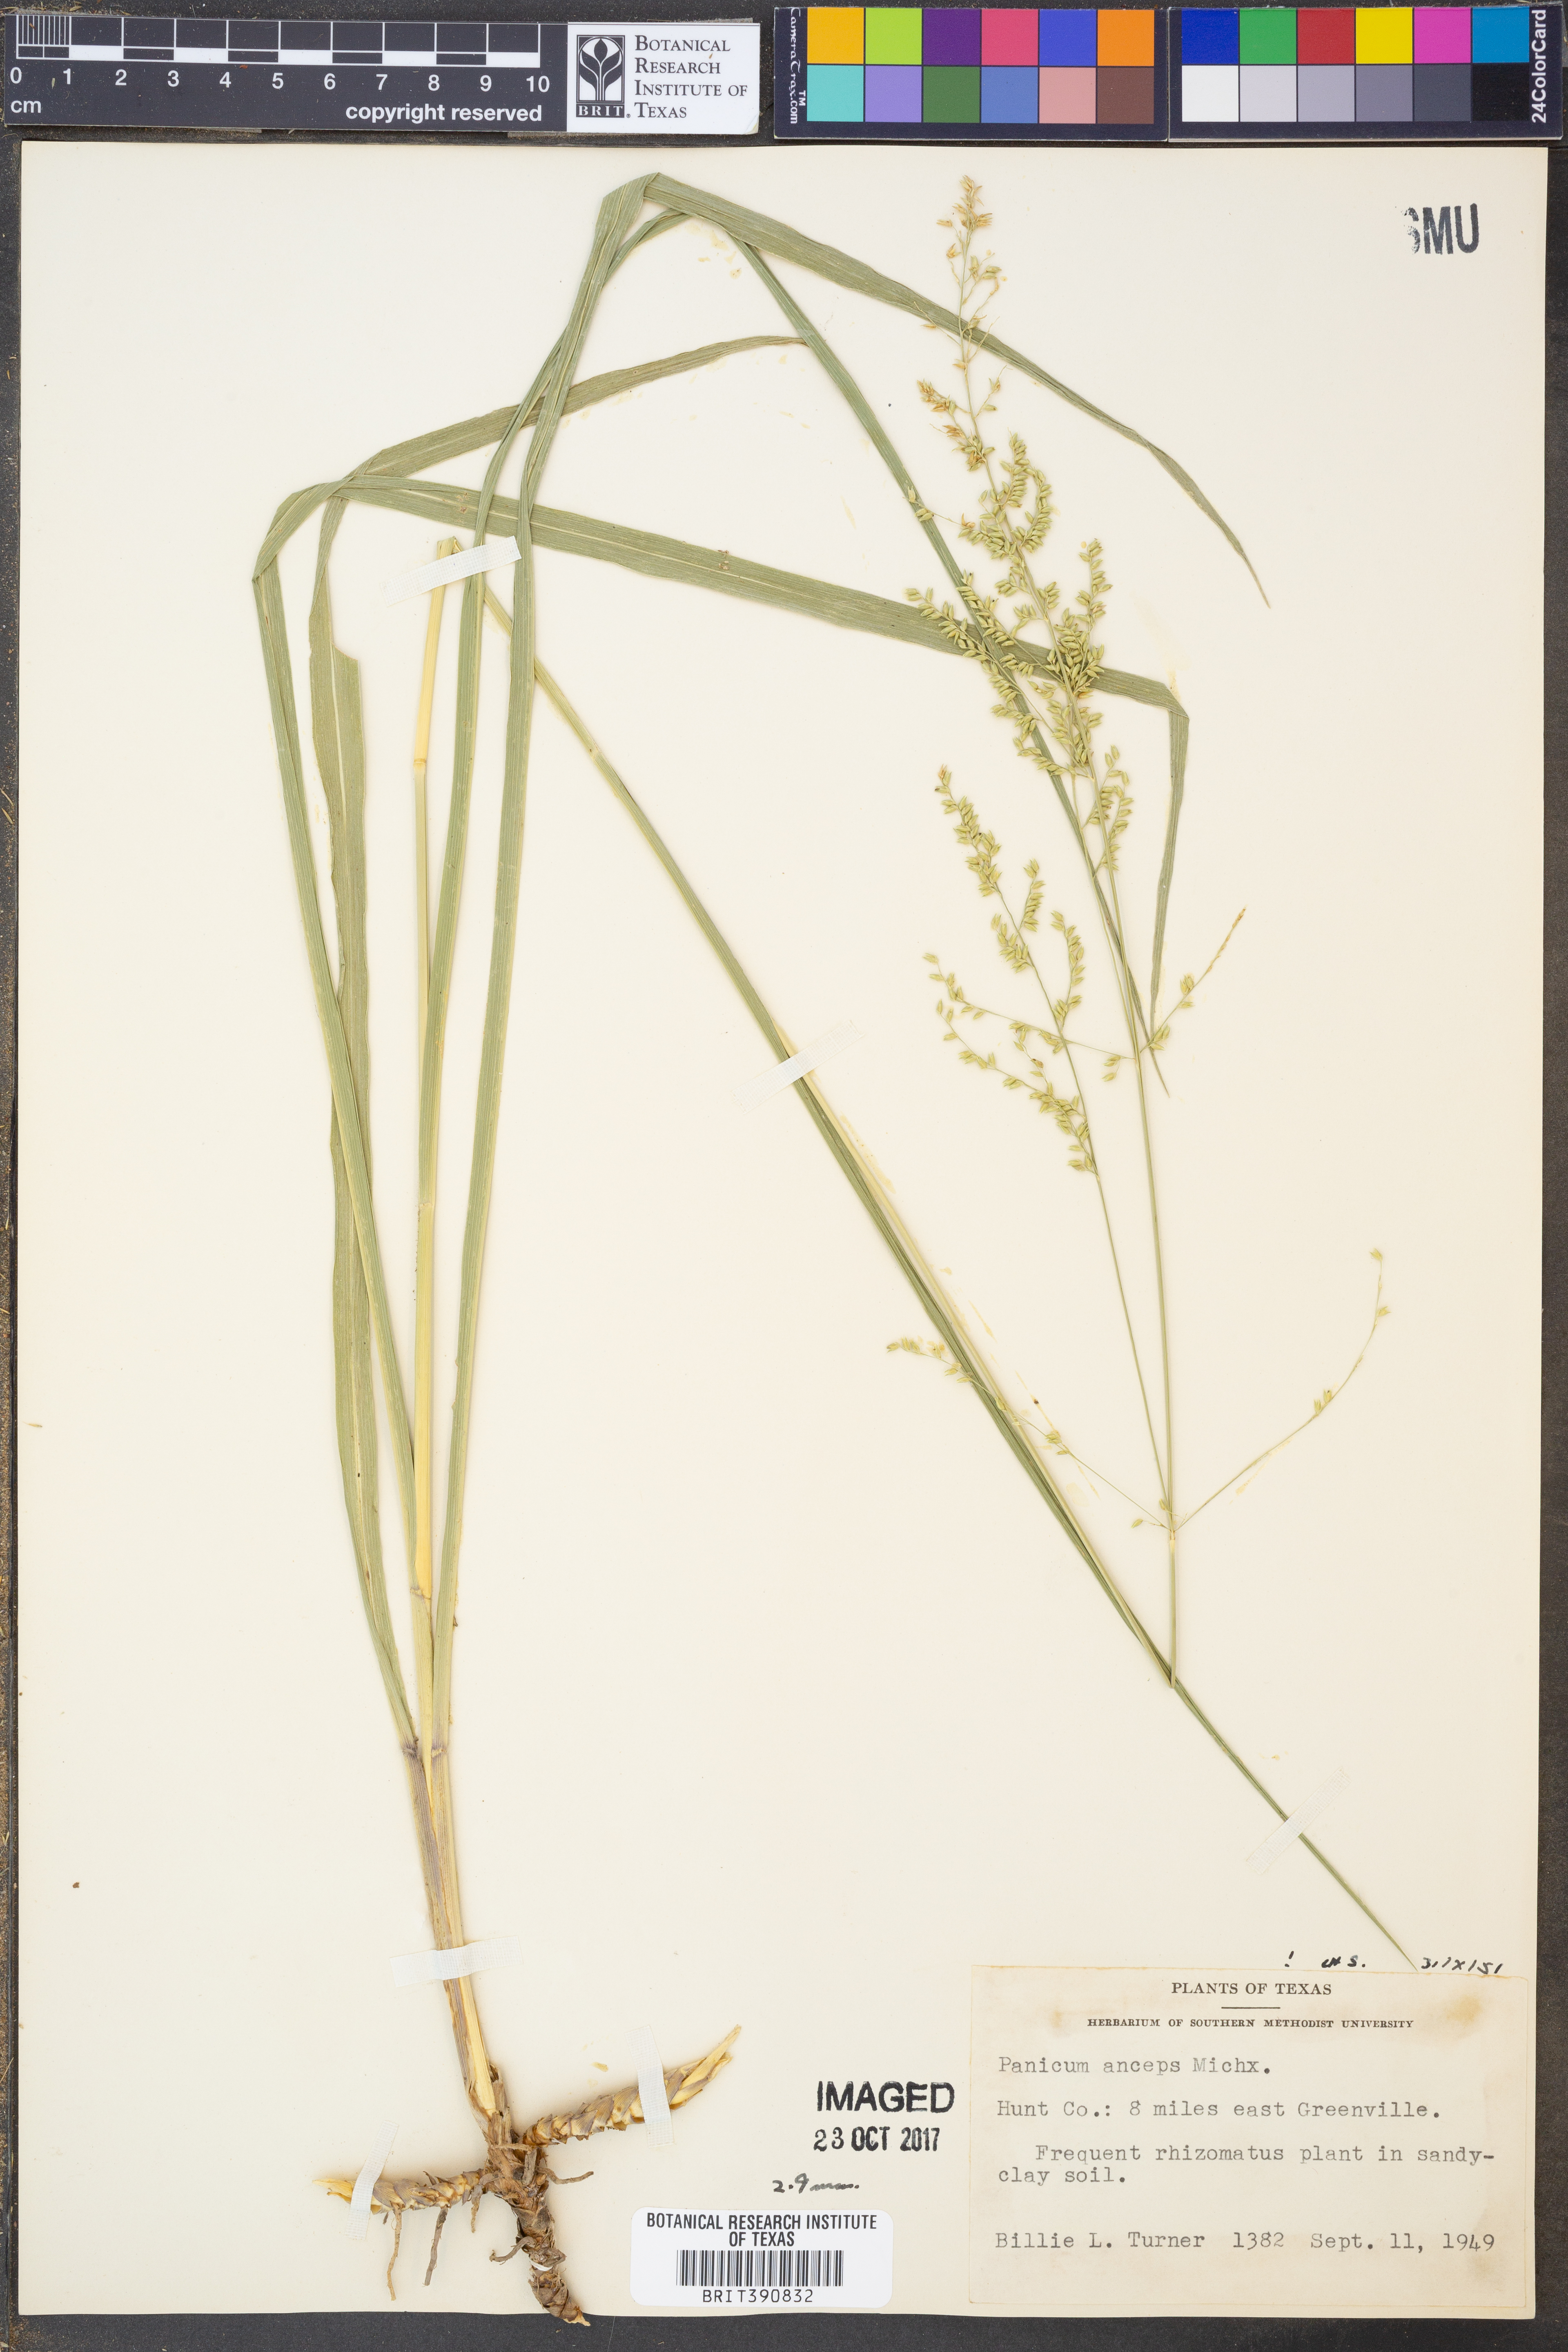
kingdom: Plantae
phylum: Tracheophyta
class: Liliopsida
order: Poales
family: Poaceae
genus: Coleataenia
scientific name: Coleataenia anceps
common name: Beaked panic grass
